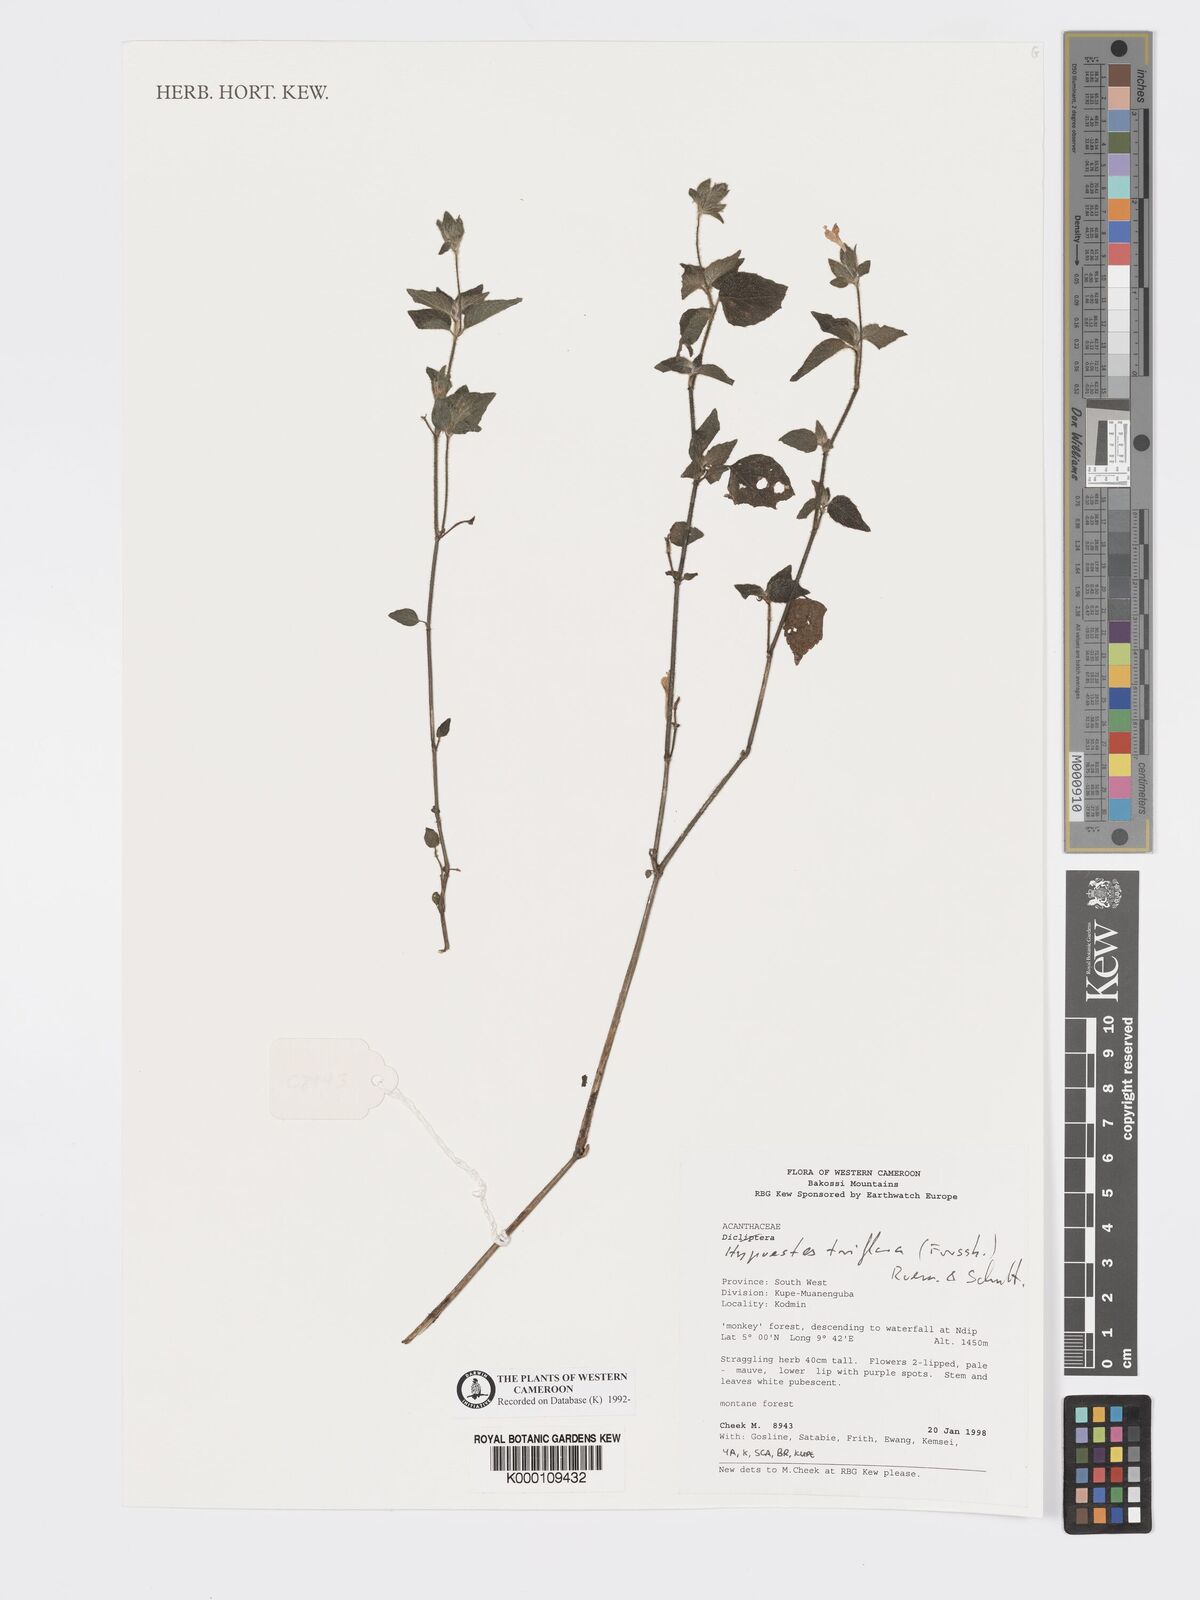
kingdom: Plantae
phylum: Tracheophyta
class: Magnoliopsida
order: Lamiales
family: Acanthaceae
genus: Hypoestes
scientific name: Hypoestes triflora
